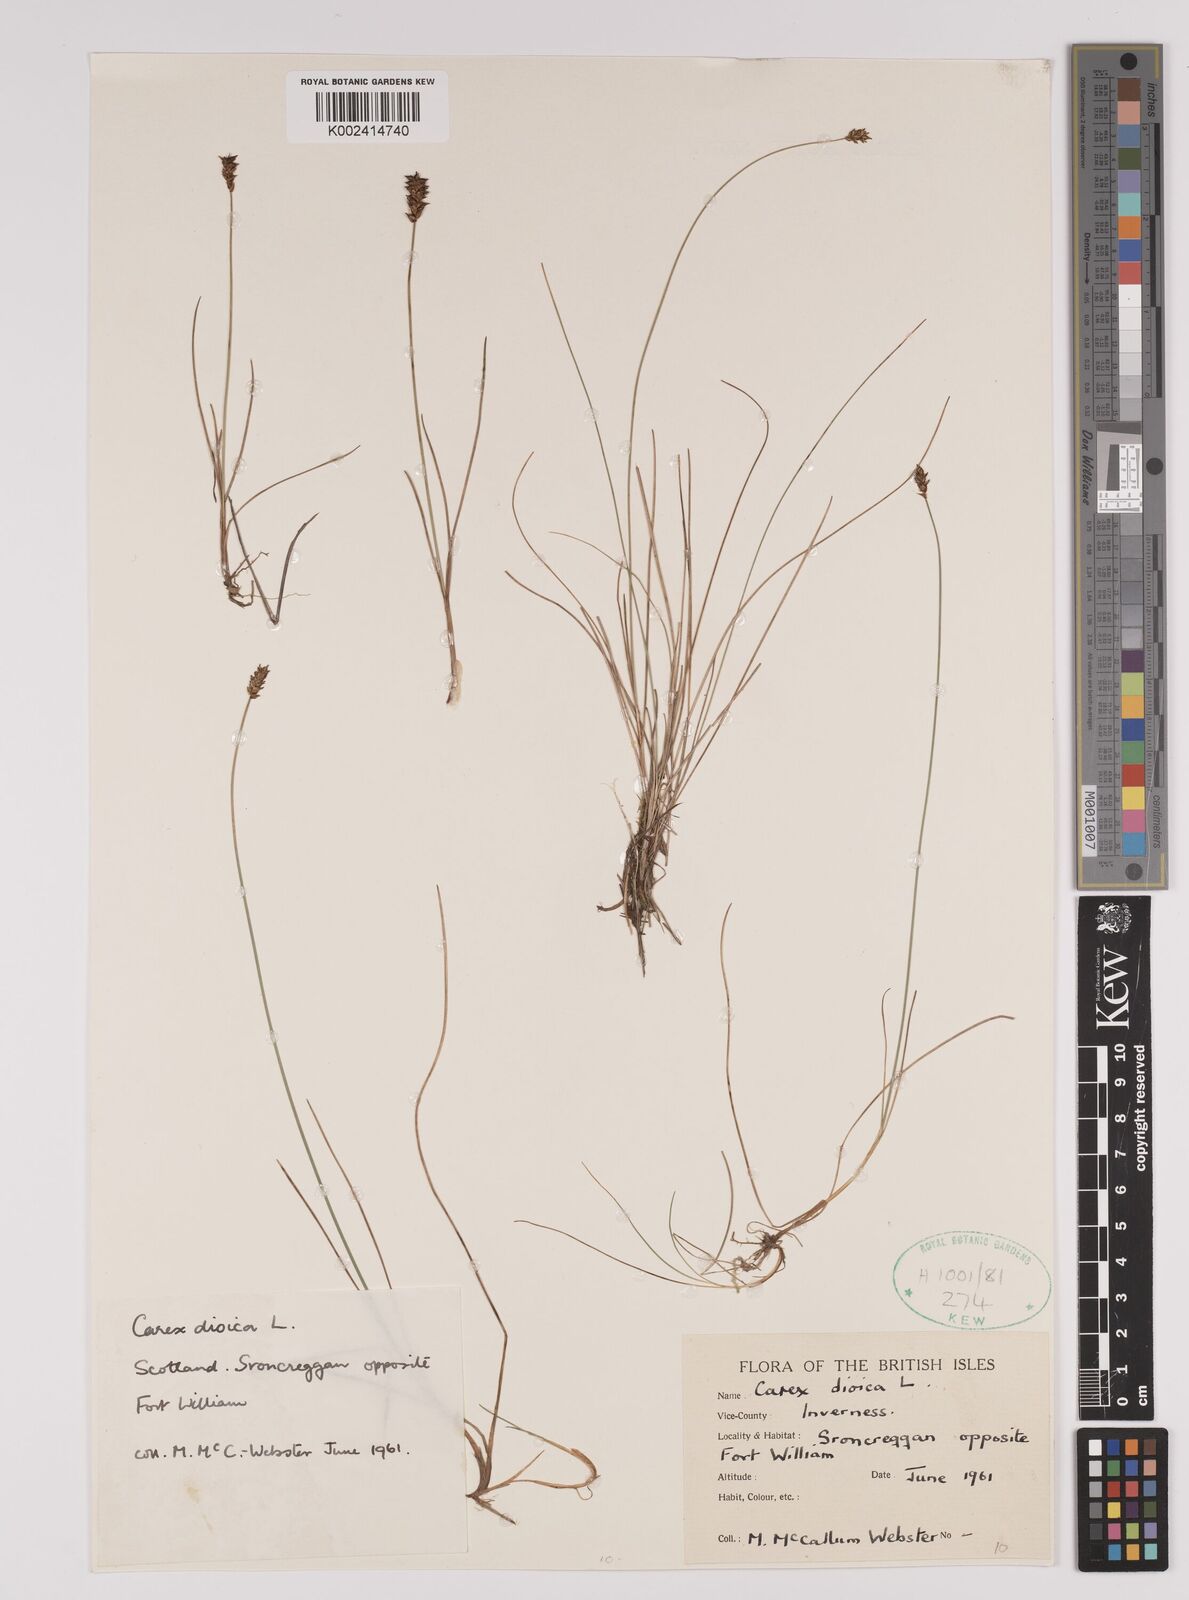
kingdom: Plantae
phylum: Tracheophyta
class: Liliopsida
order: Poales
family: Cyperaceae
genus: Carex
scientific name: Carex dioica
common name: Dioecious sedge
